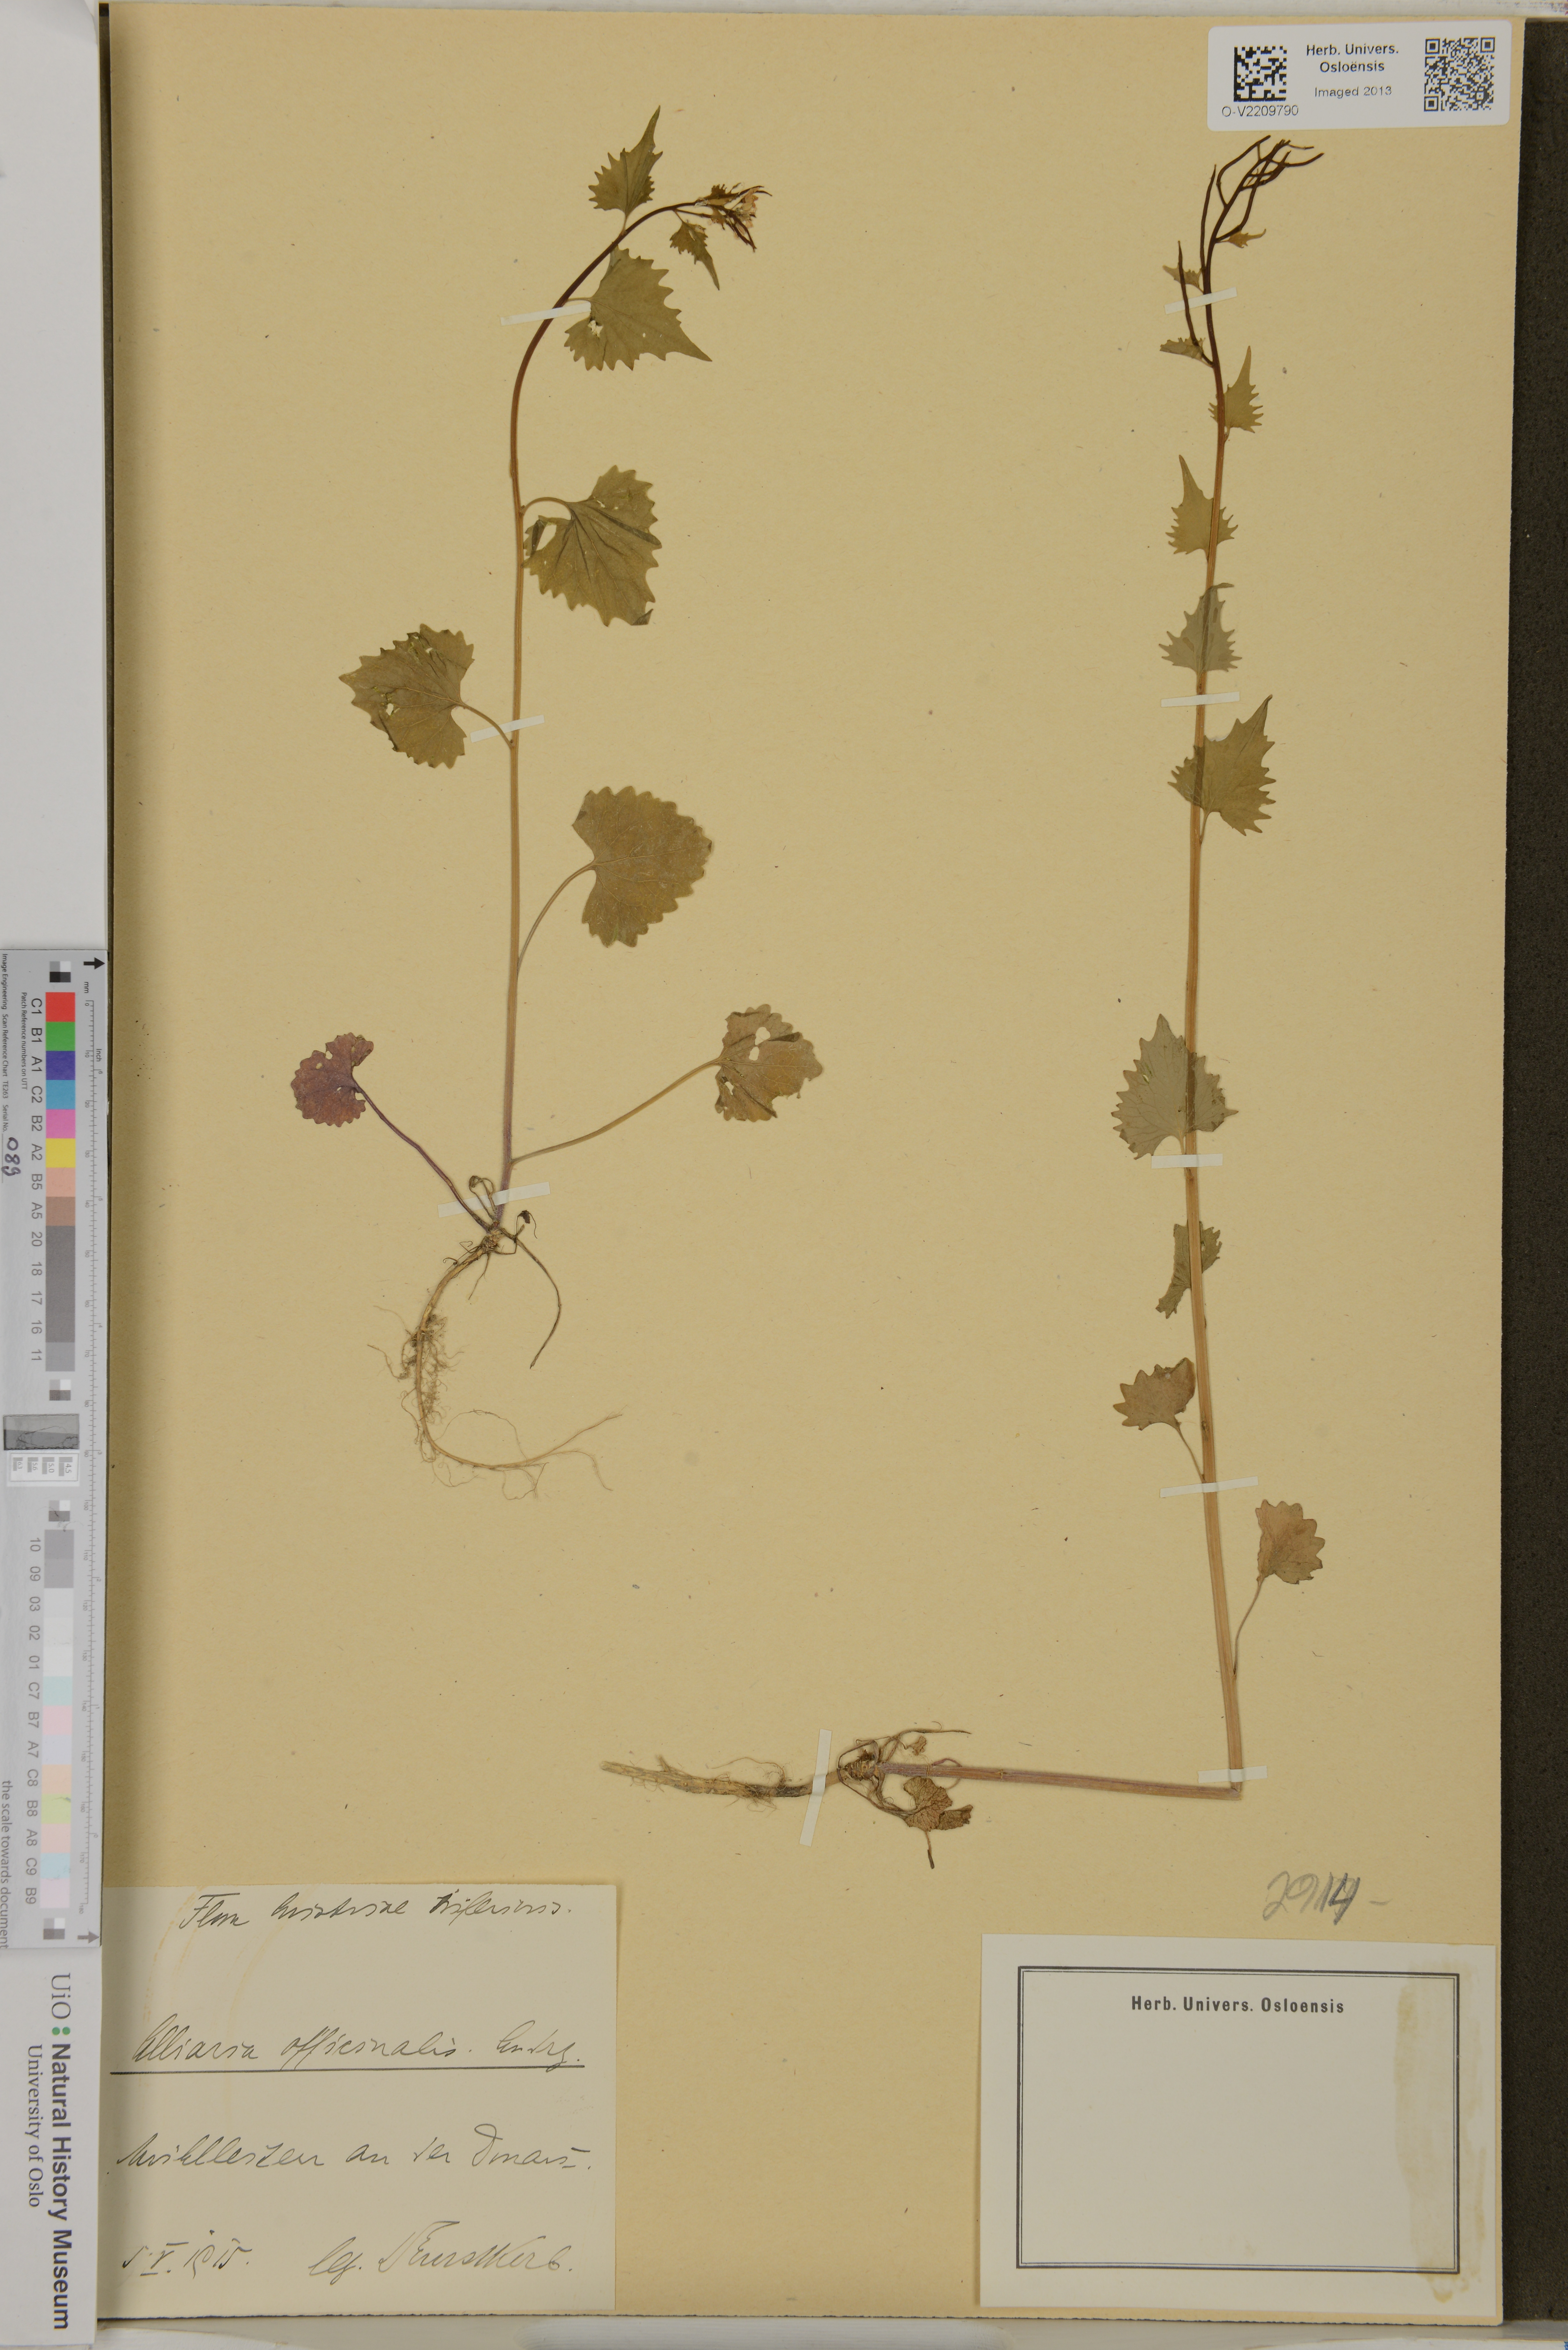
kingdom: Plantae
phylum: Tracheophyta
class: Magnoliopsida
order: Brassicales
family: Brassicaceae
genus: Alliaria
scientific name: Alliaria petiolata
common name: Garlic mustard
